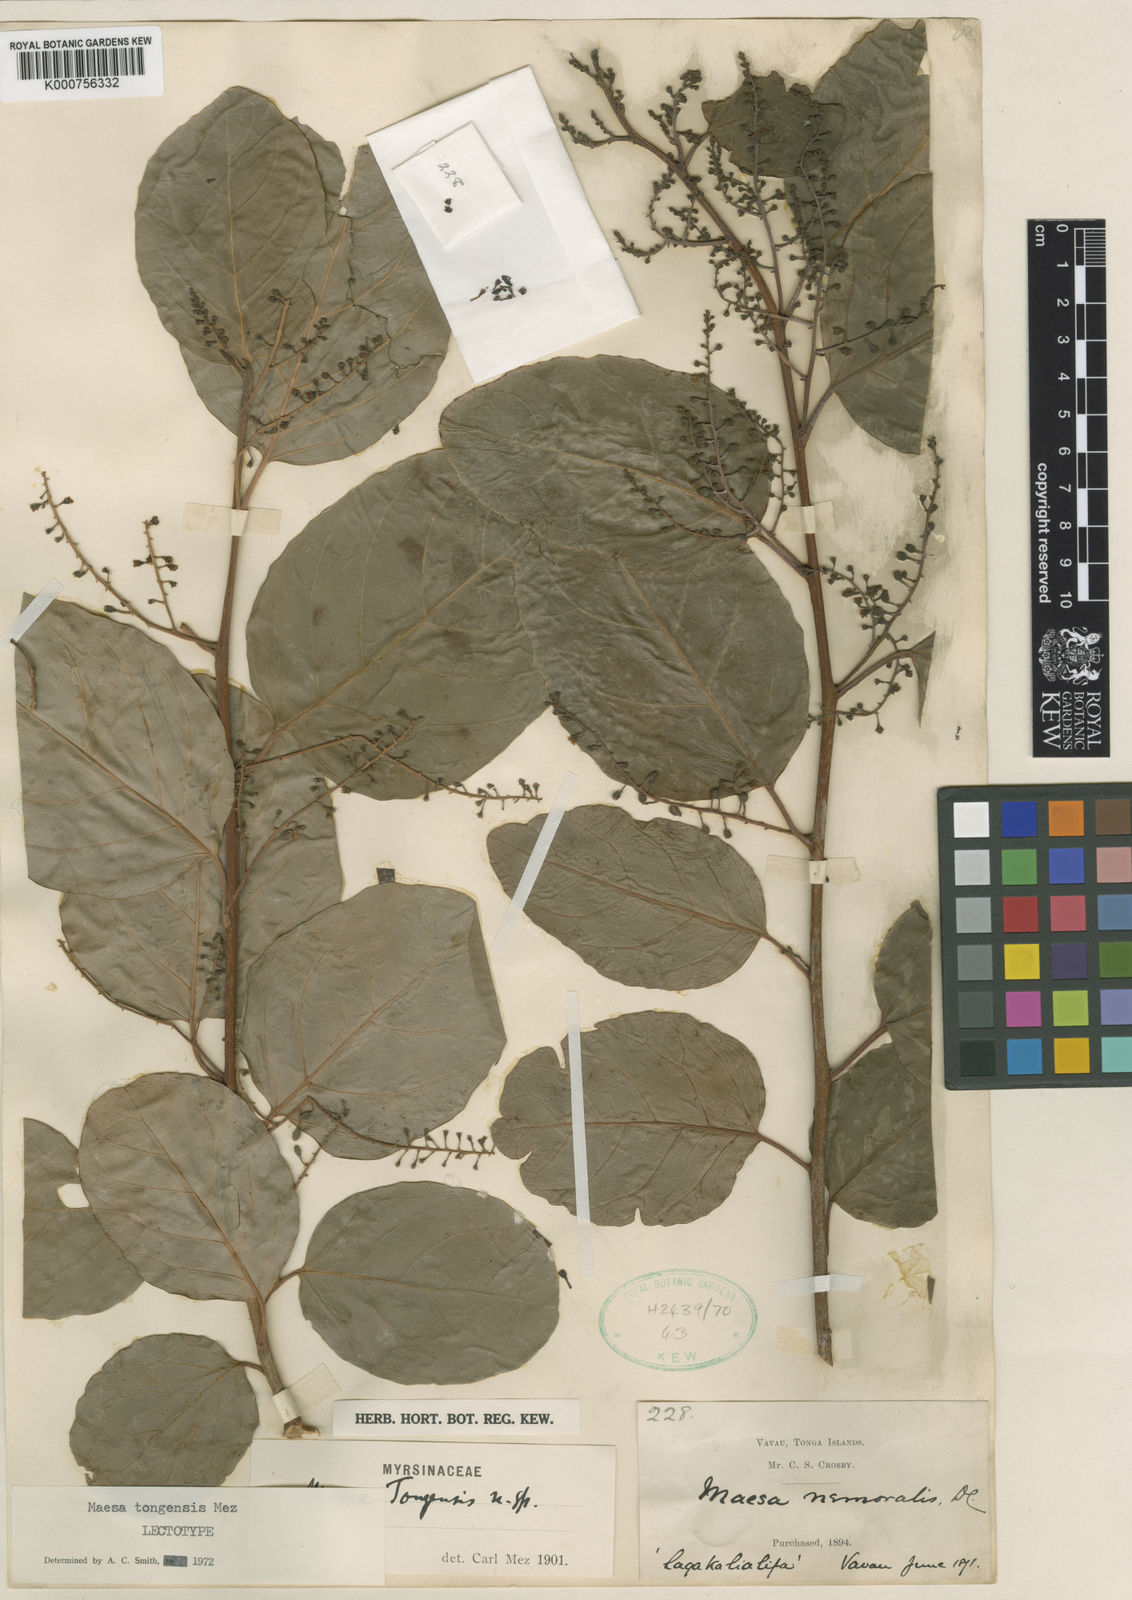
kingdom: Plantae
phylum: Tracheophyta
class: Magnoliopsida
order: Ericales
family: Primulaceae
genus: Maesa
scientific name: Maesa tongensis
